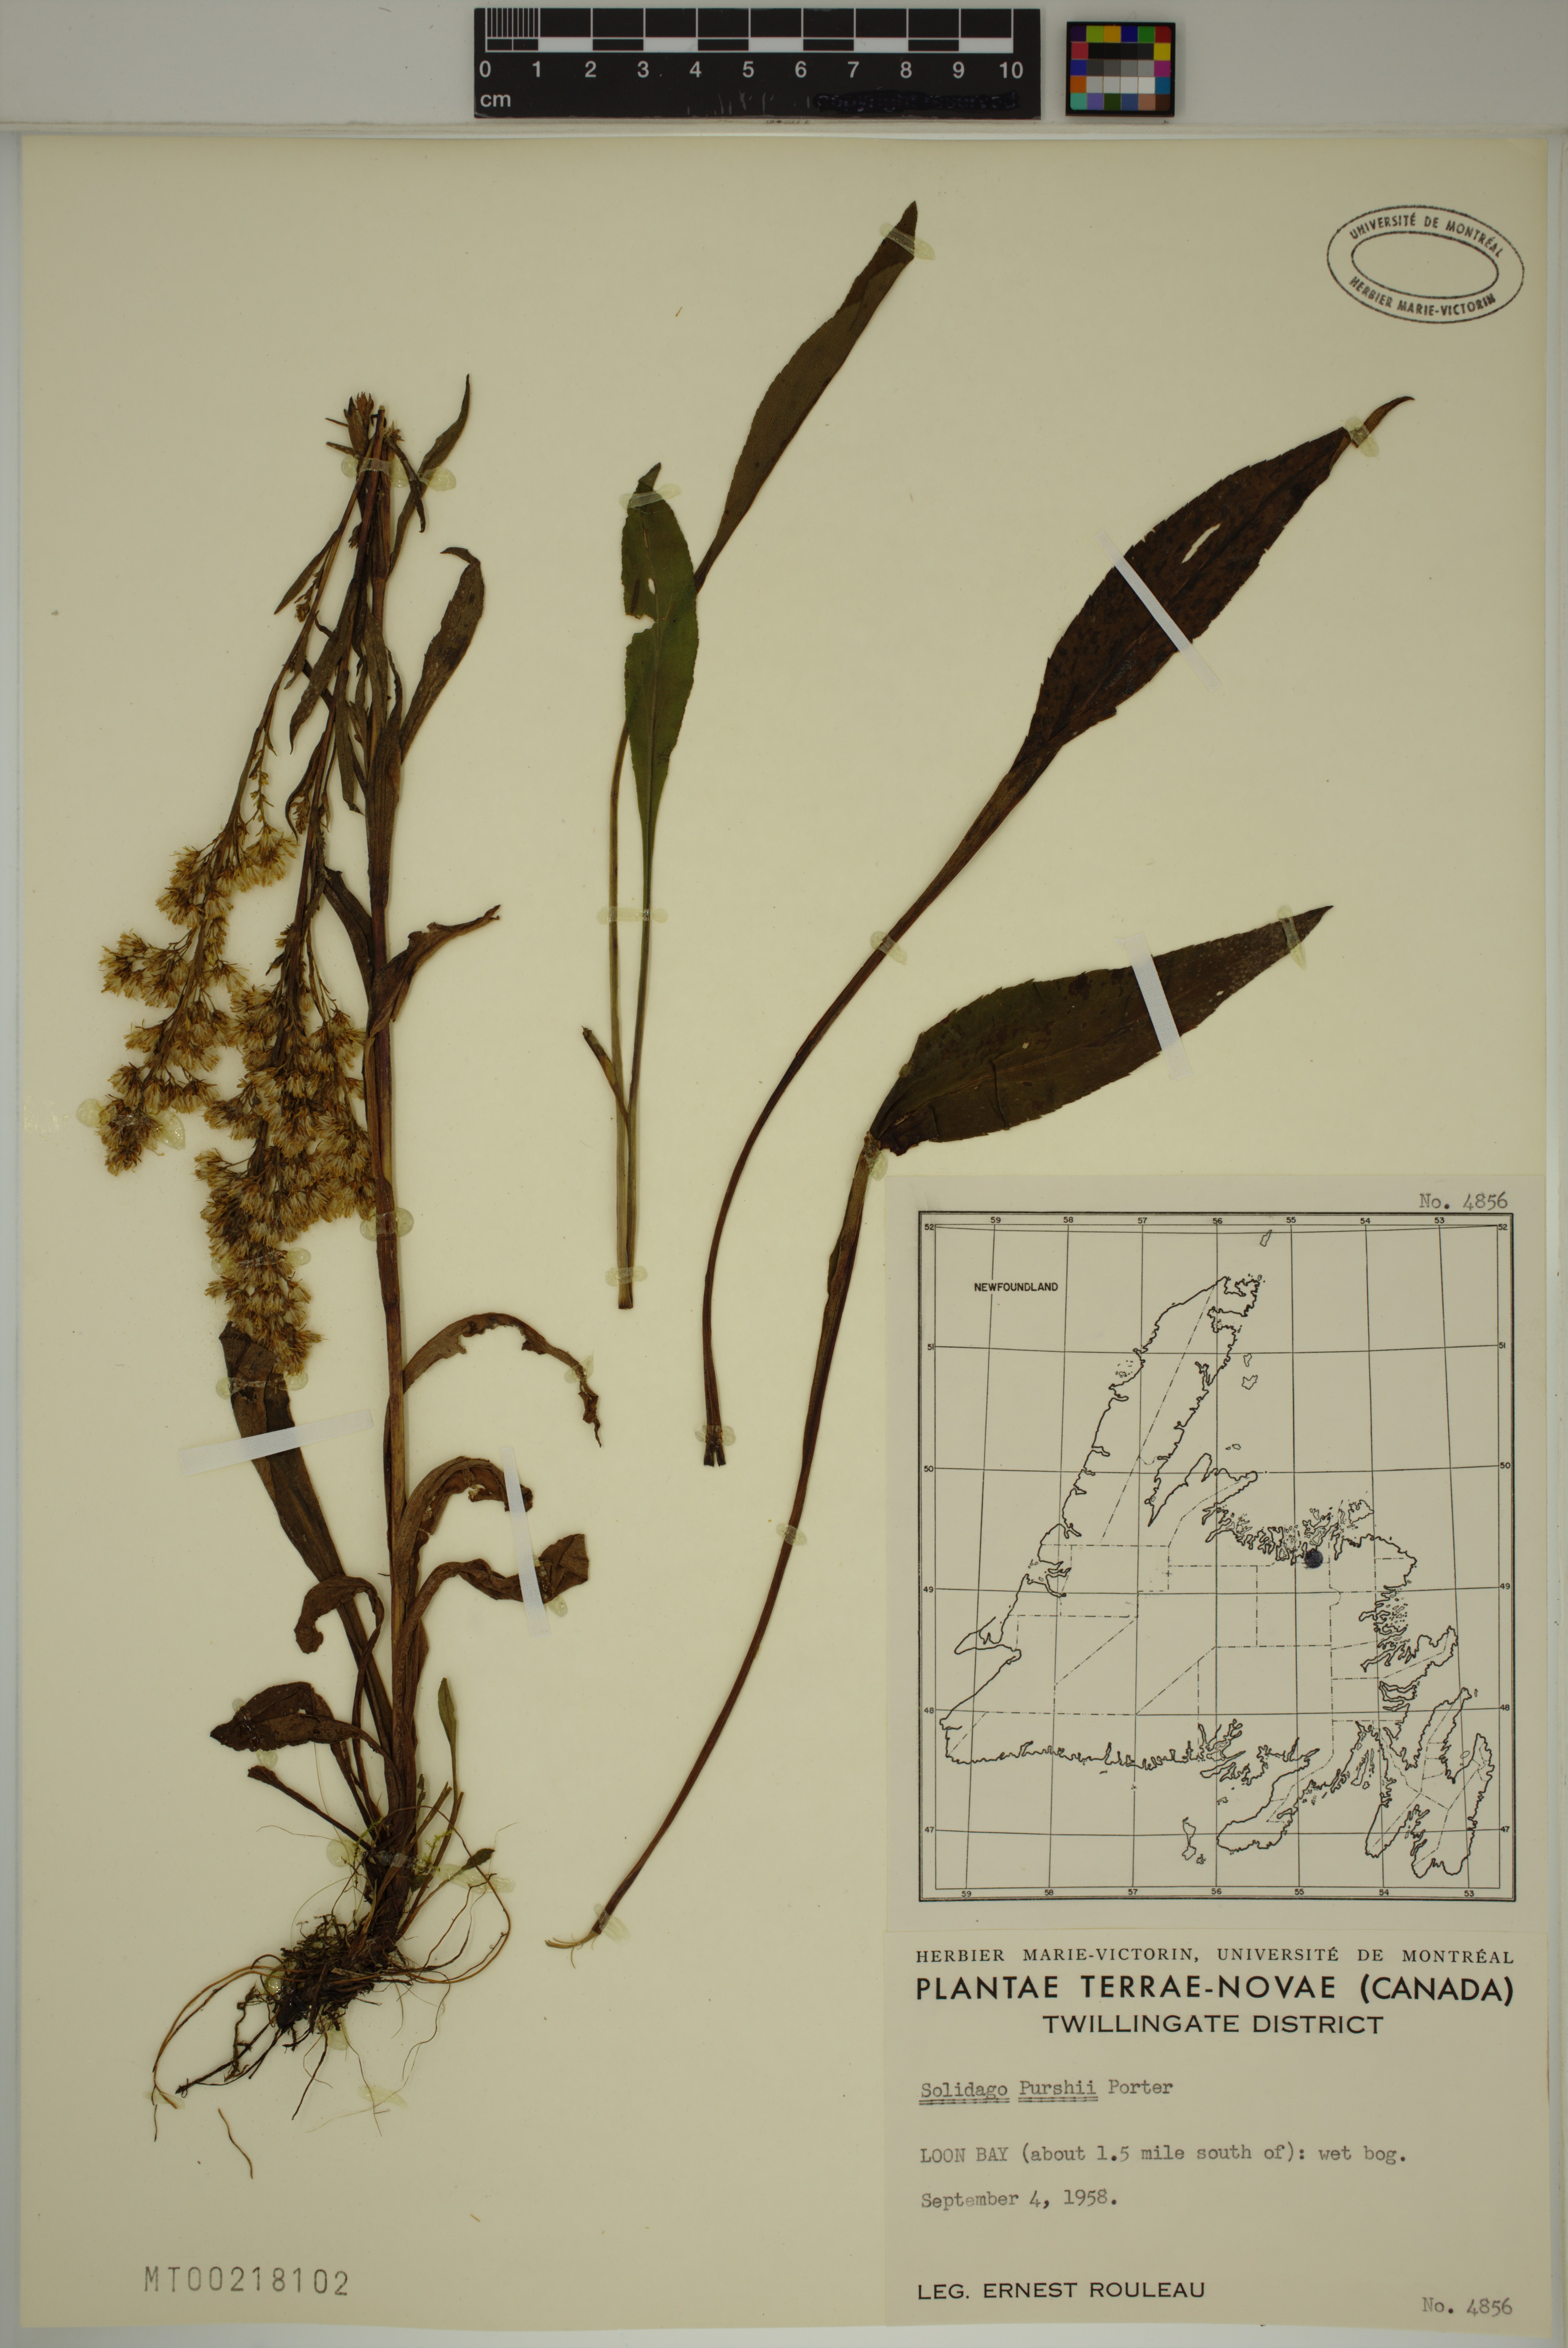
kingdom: Plantae
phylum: Tracheophyta
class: Magnoliopsida
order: Asterales
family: Asteraceae
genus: Solidago
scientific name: Solidago uliginosa
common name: Bog goldenrod
